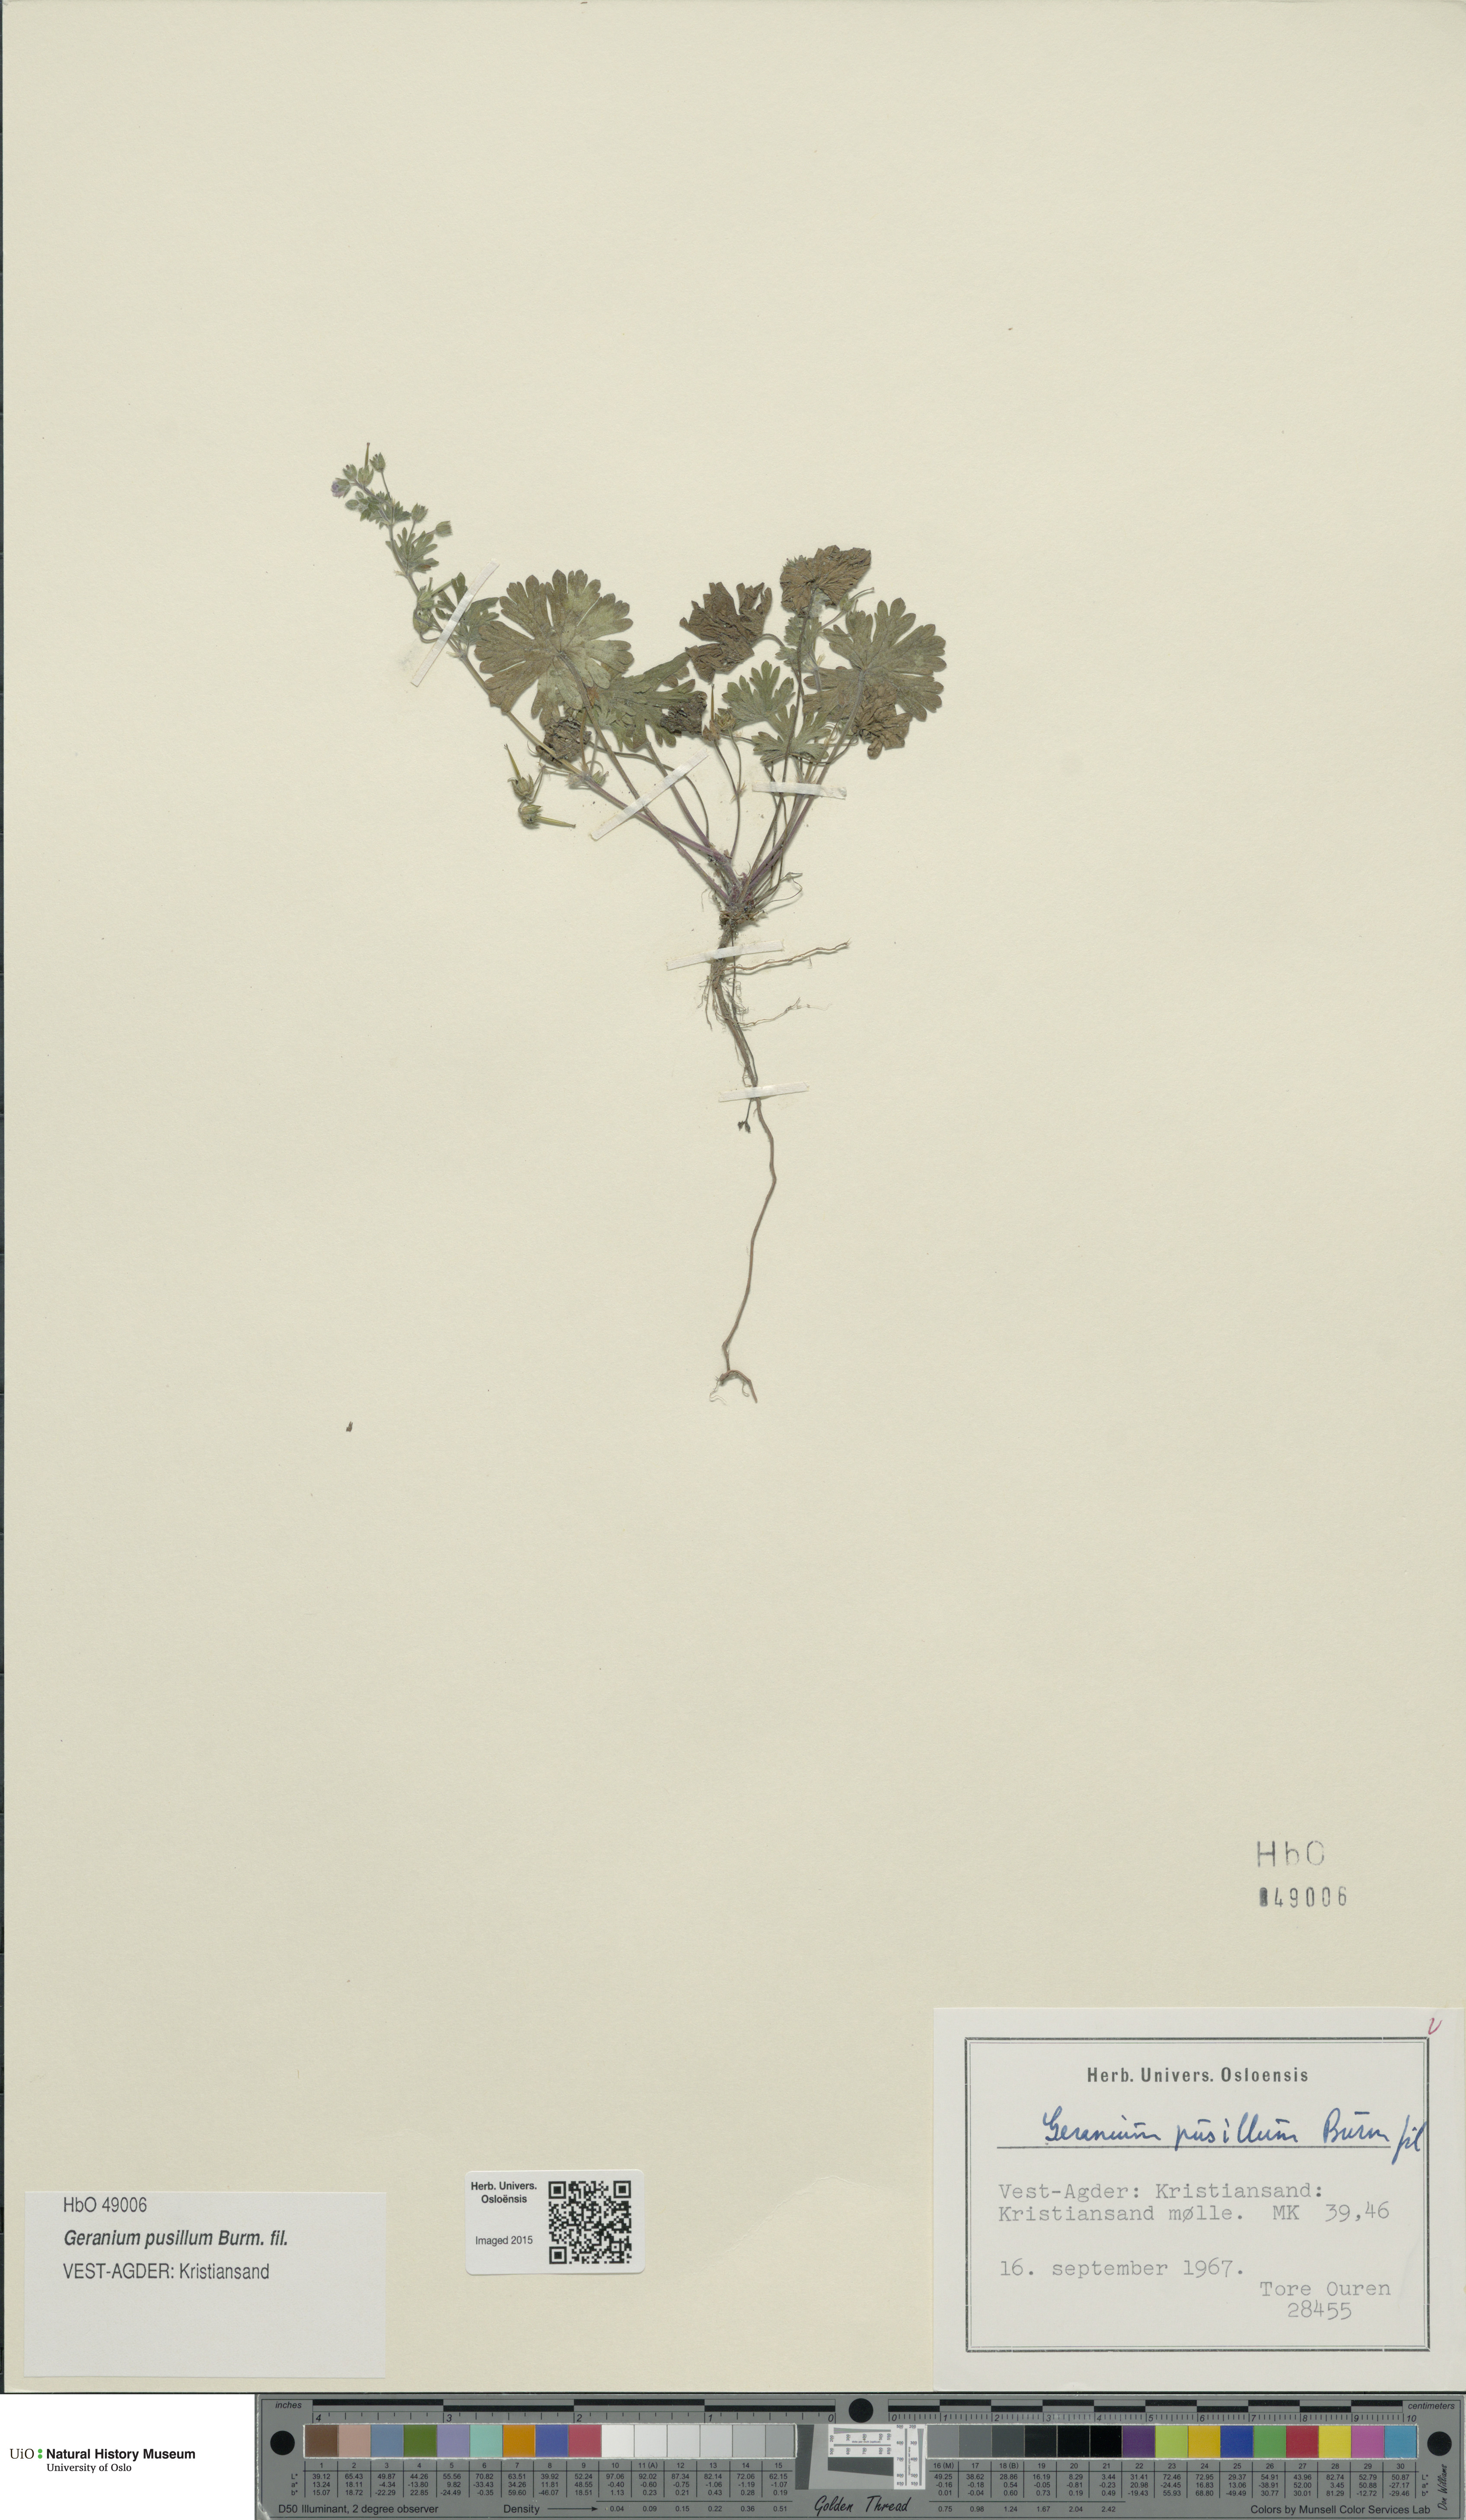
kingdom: Plantae
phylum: Tracheophyta
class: Magnoliopsida
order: Geraniales
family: Geraniaceae
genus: Geranium
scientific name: Geranium pusillum
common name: Small geranium
